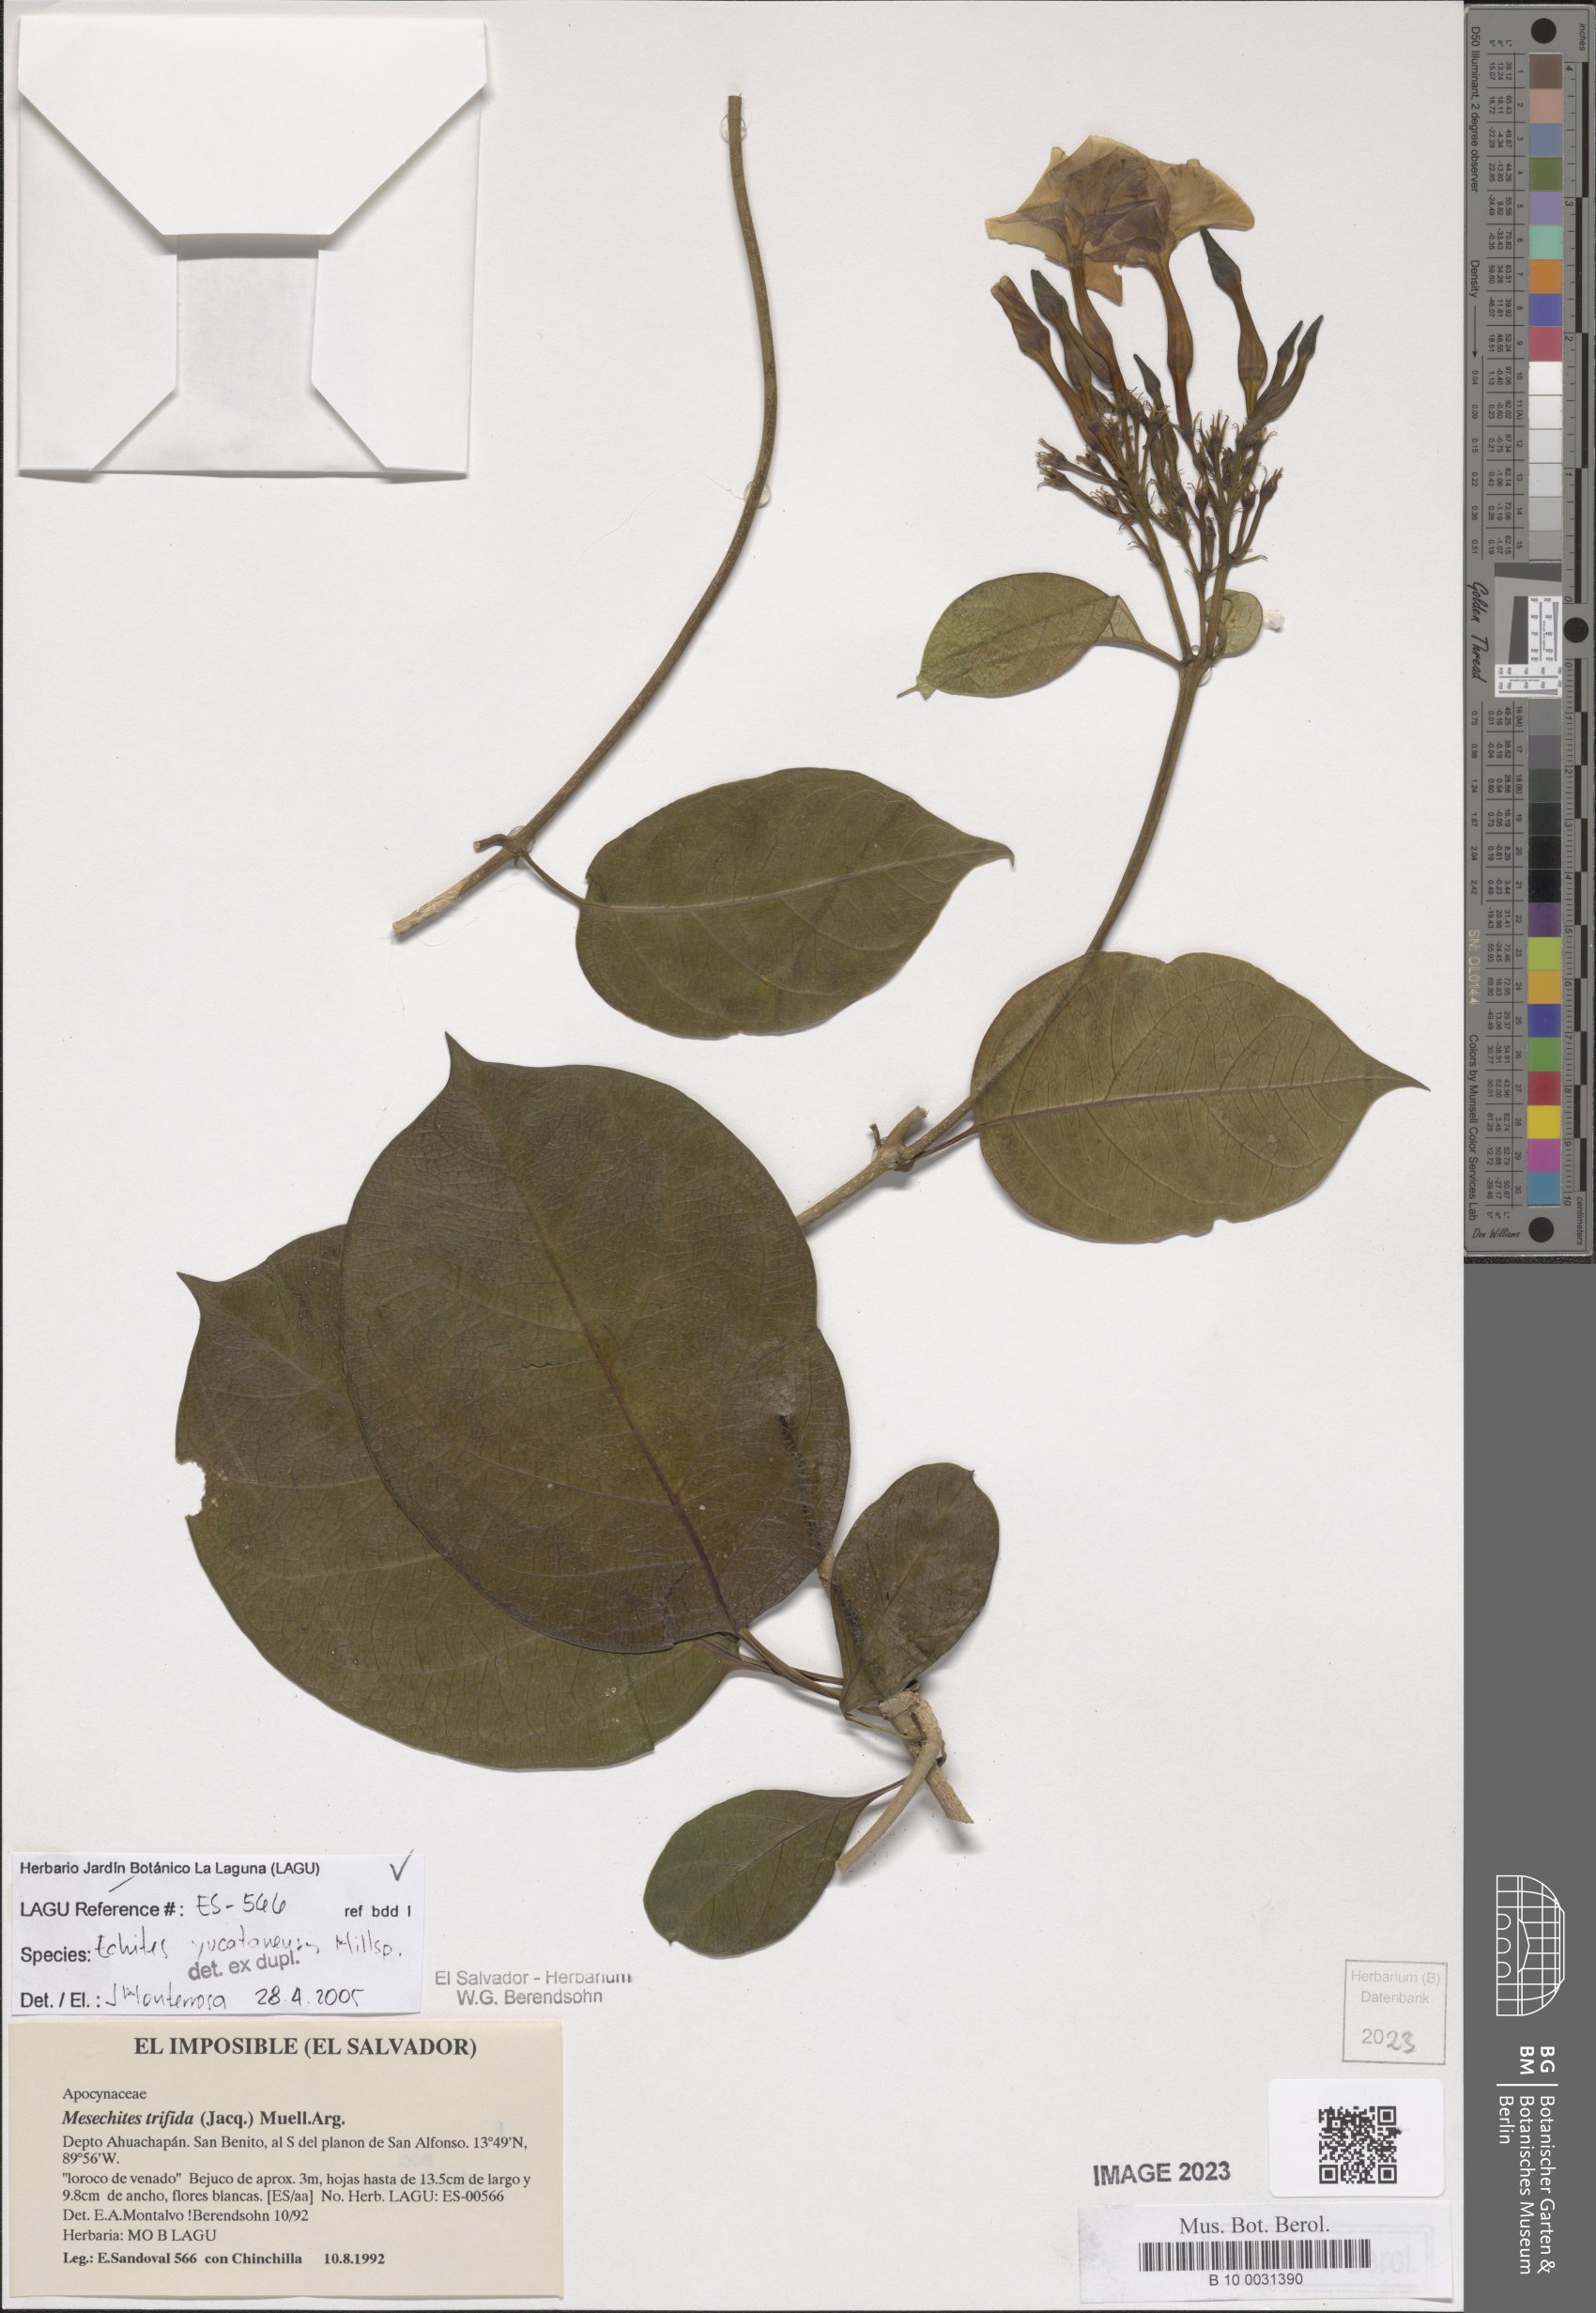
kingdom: Plantae
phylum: Tracheophyta
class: Magnoliopsida
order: Gentianales
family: Apocynaceae
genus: Echites
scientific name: Echites yucatanensis
